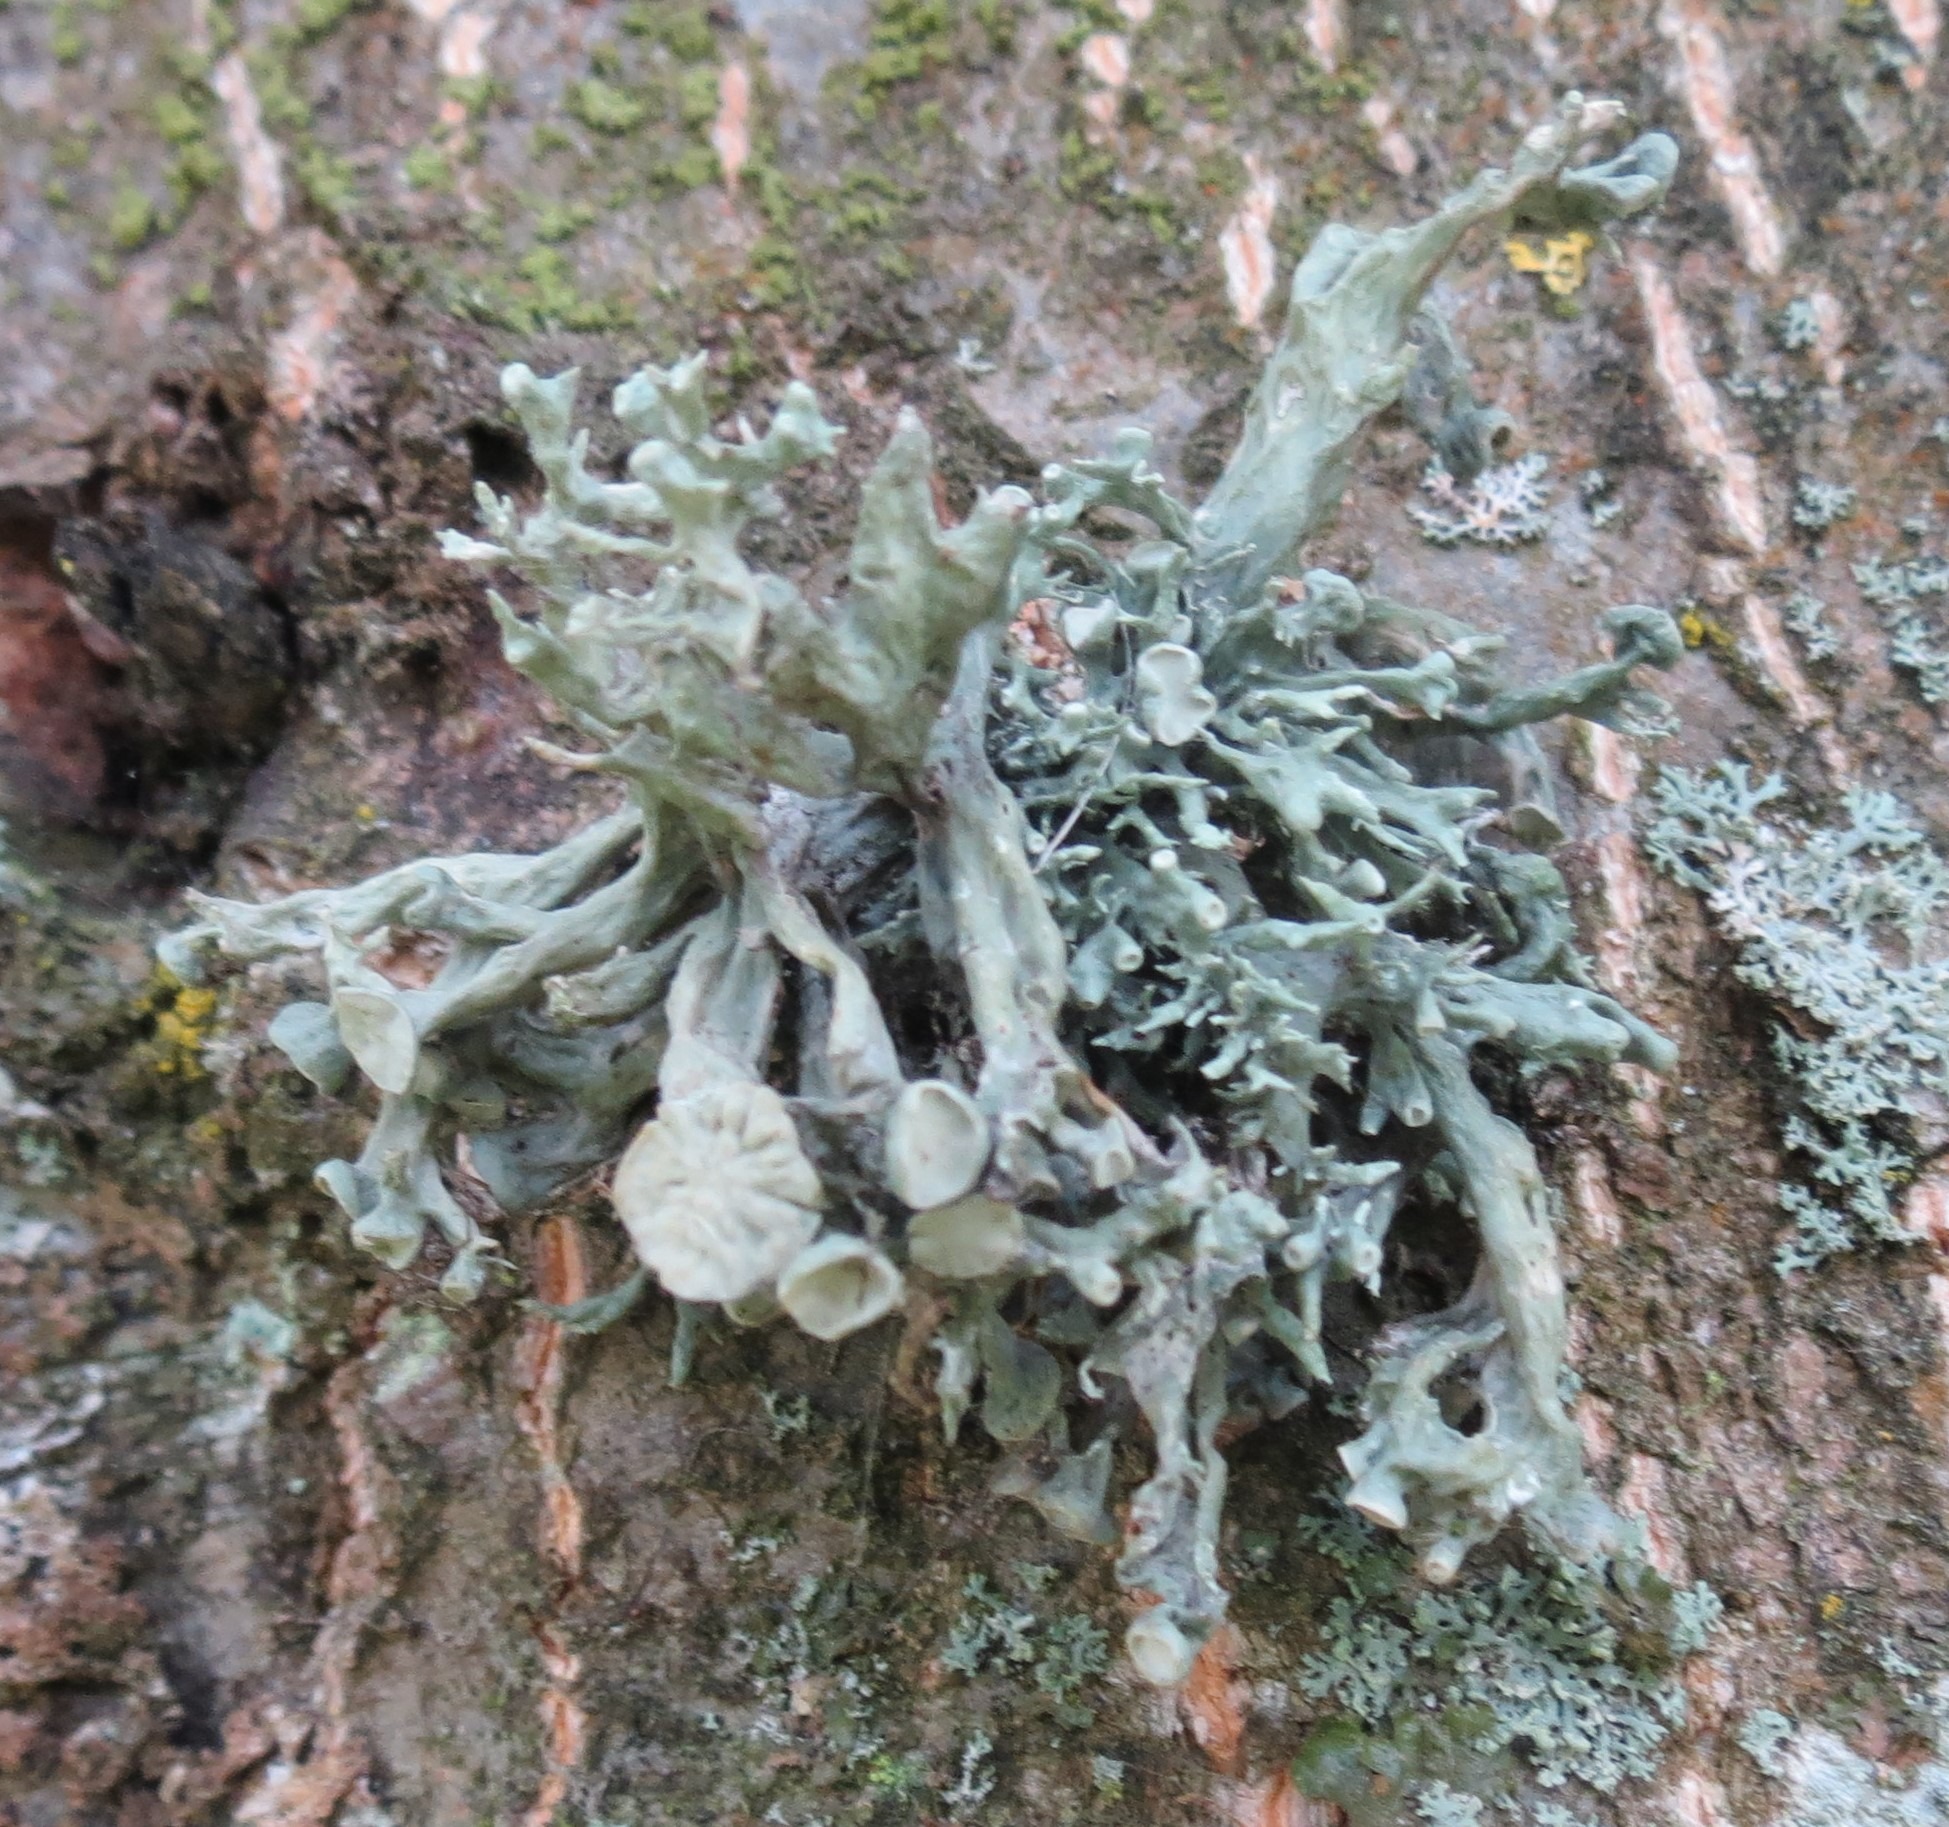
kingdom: Fungi
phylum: Ascomycota
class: Lecanoromycetes
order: Lecanorales
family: Ramalinaceae
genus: Ramalina
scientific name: Ramalina fastigiata
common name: Tue-grenlav
